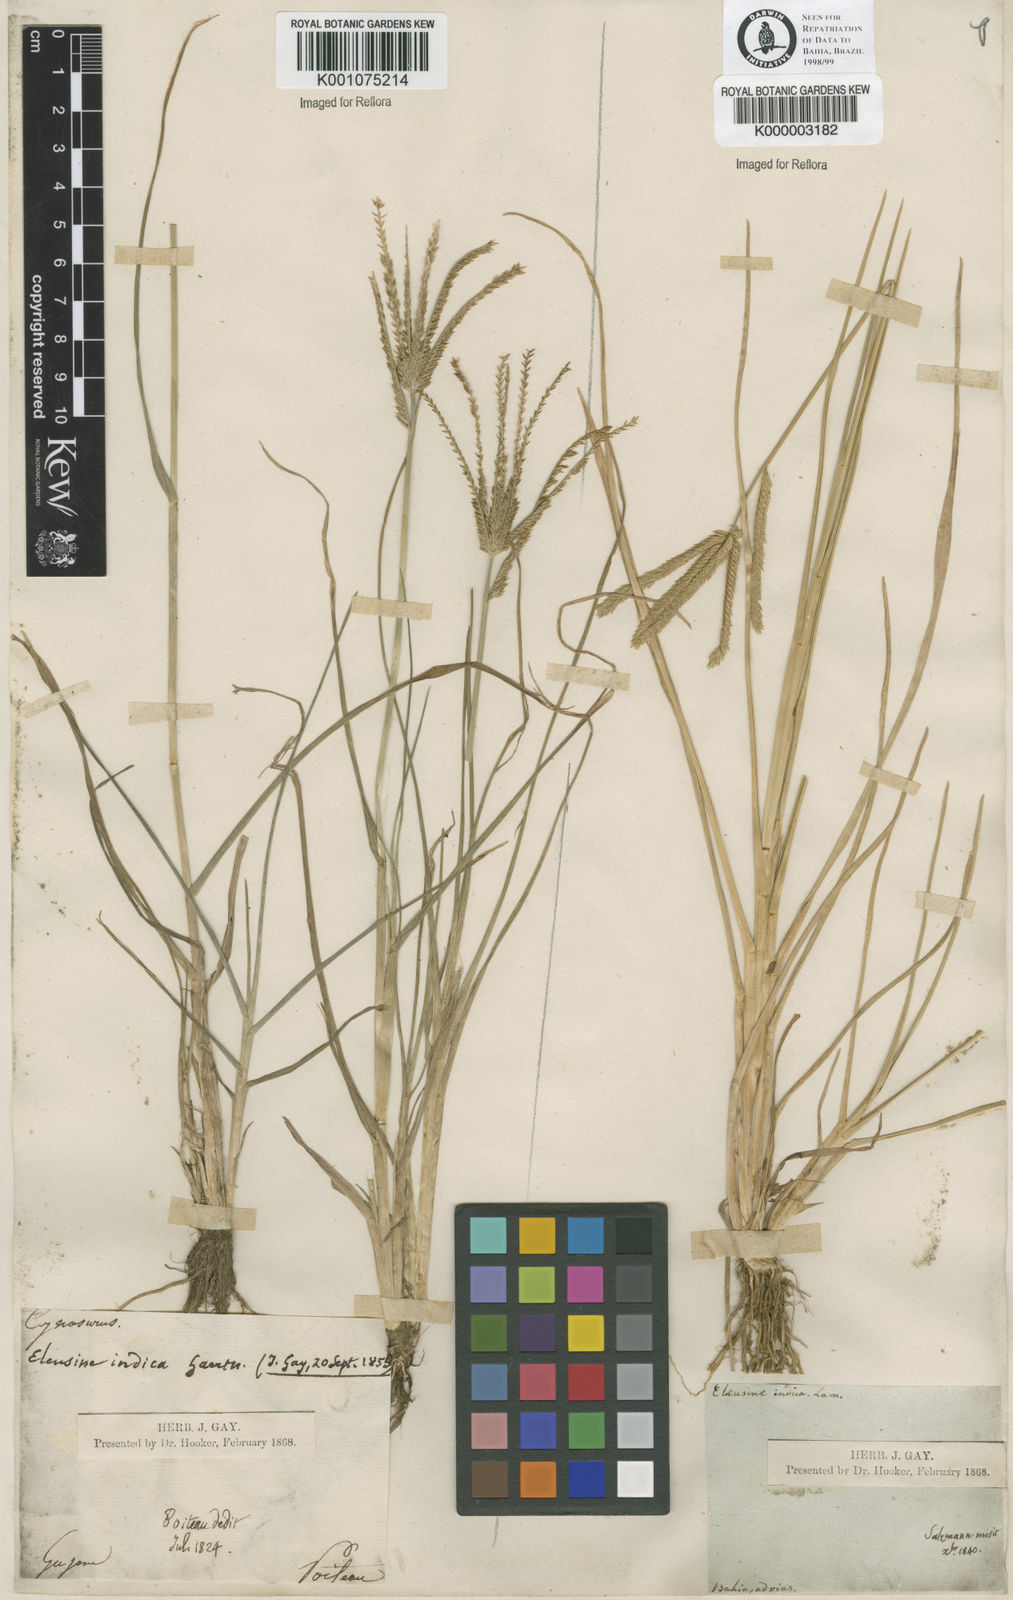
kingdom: Plantae
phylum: Tracheophyta
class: Liliopsida
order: Poales
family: Poaceae
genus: Eleusine
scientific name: Eleusine indica
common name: Yard-grass
